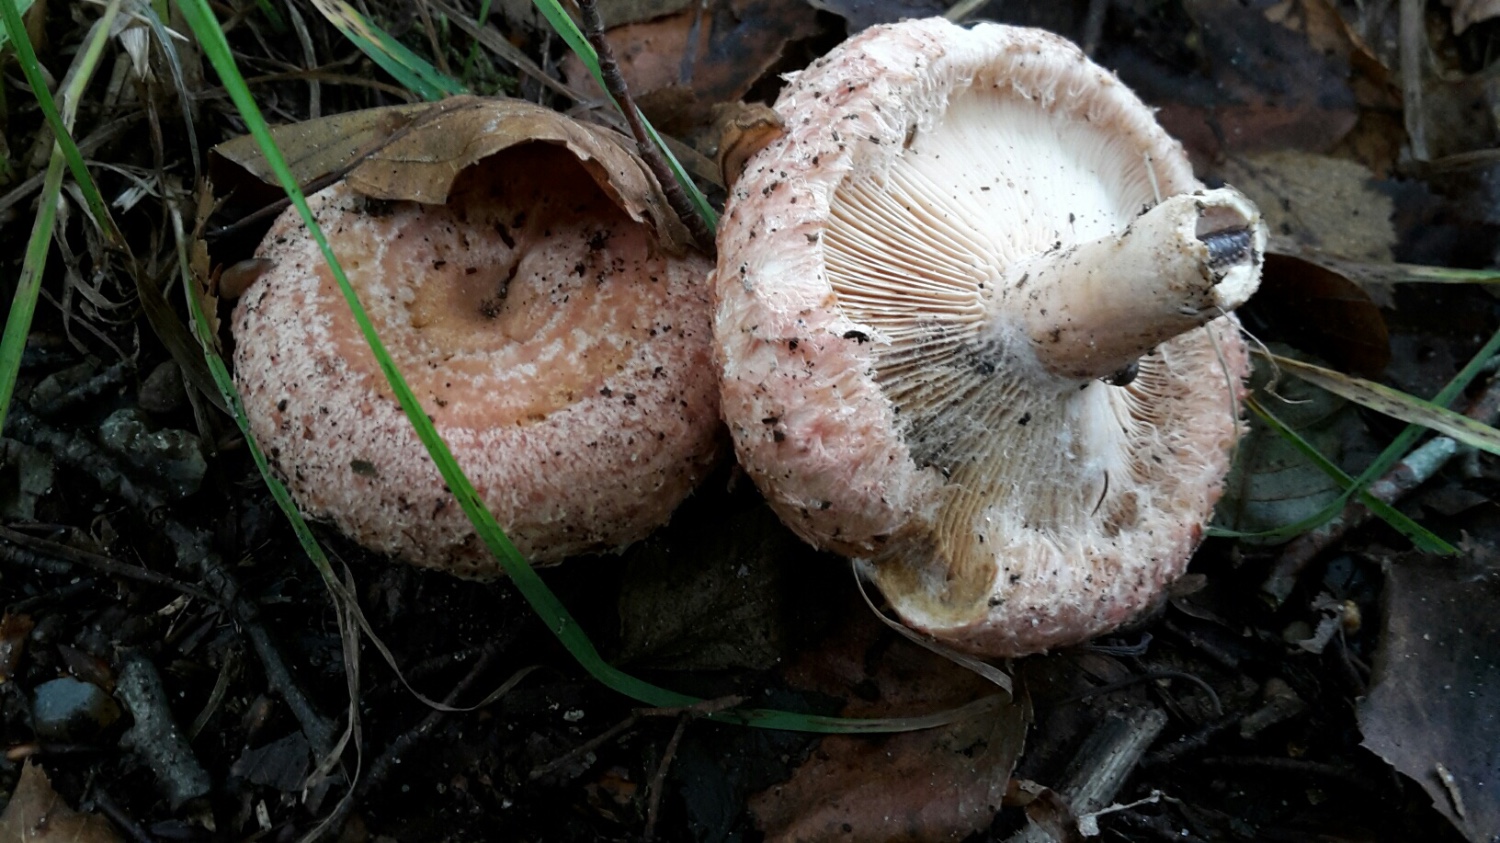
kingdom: Fungi
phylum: Basidiomycota
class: Agaricomycetes
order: Russulales
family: Russulaceae
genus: Lactarius
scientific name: Lactarius torminosus
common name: skægget mælkehat
